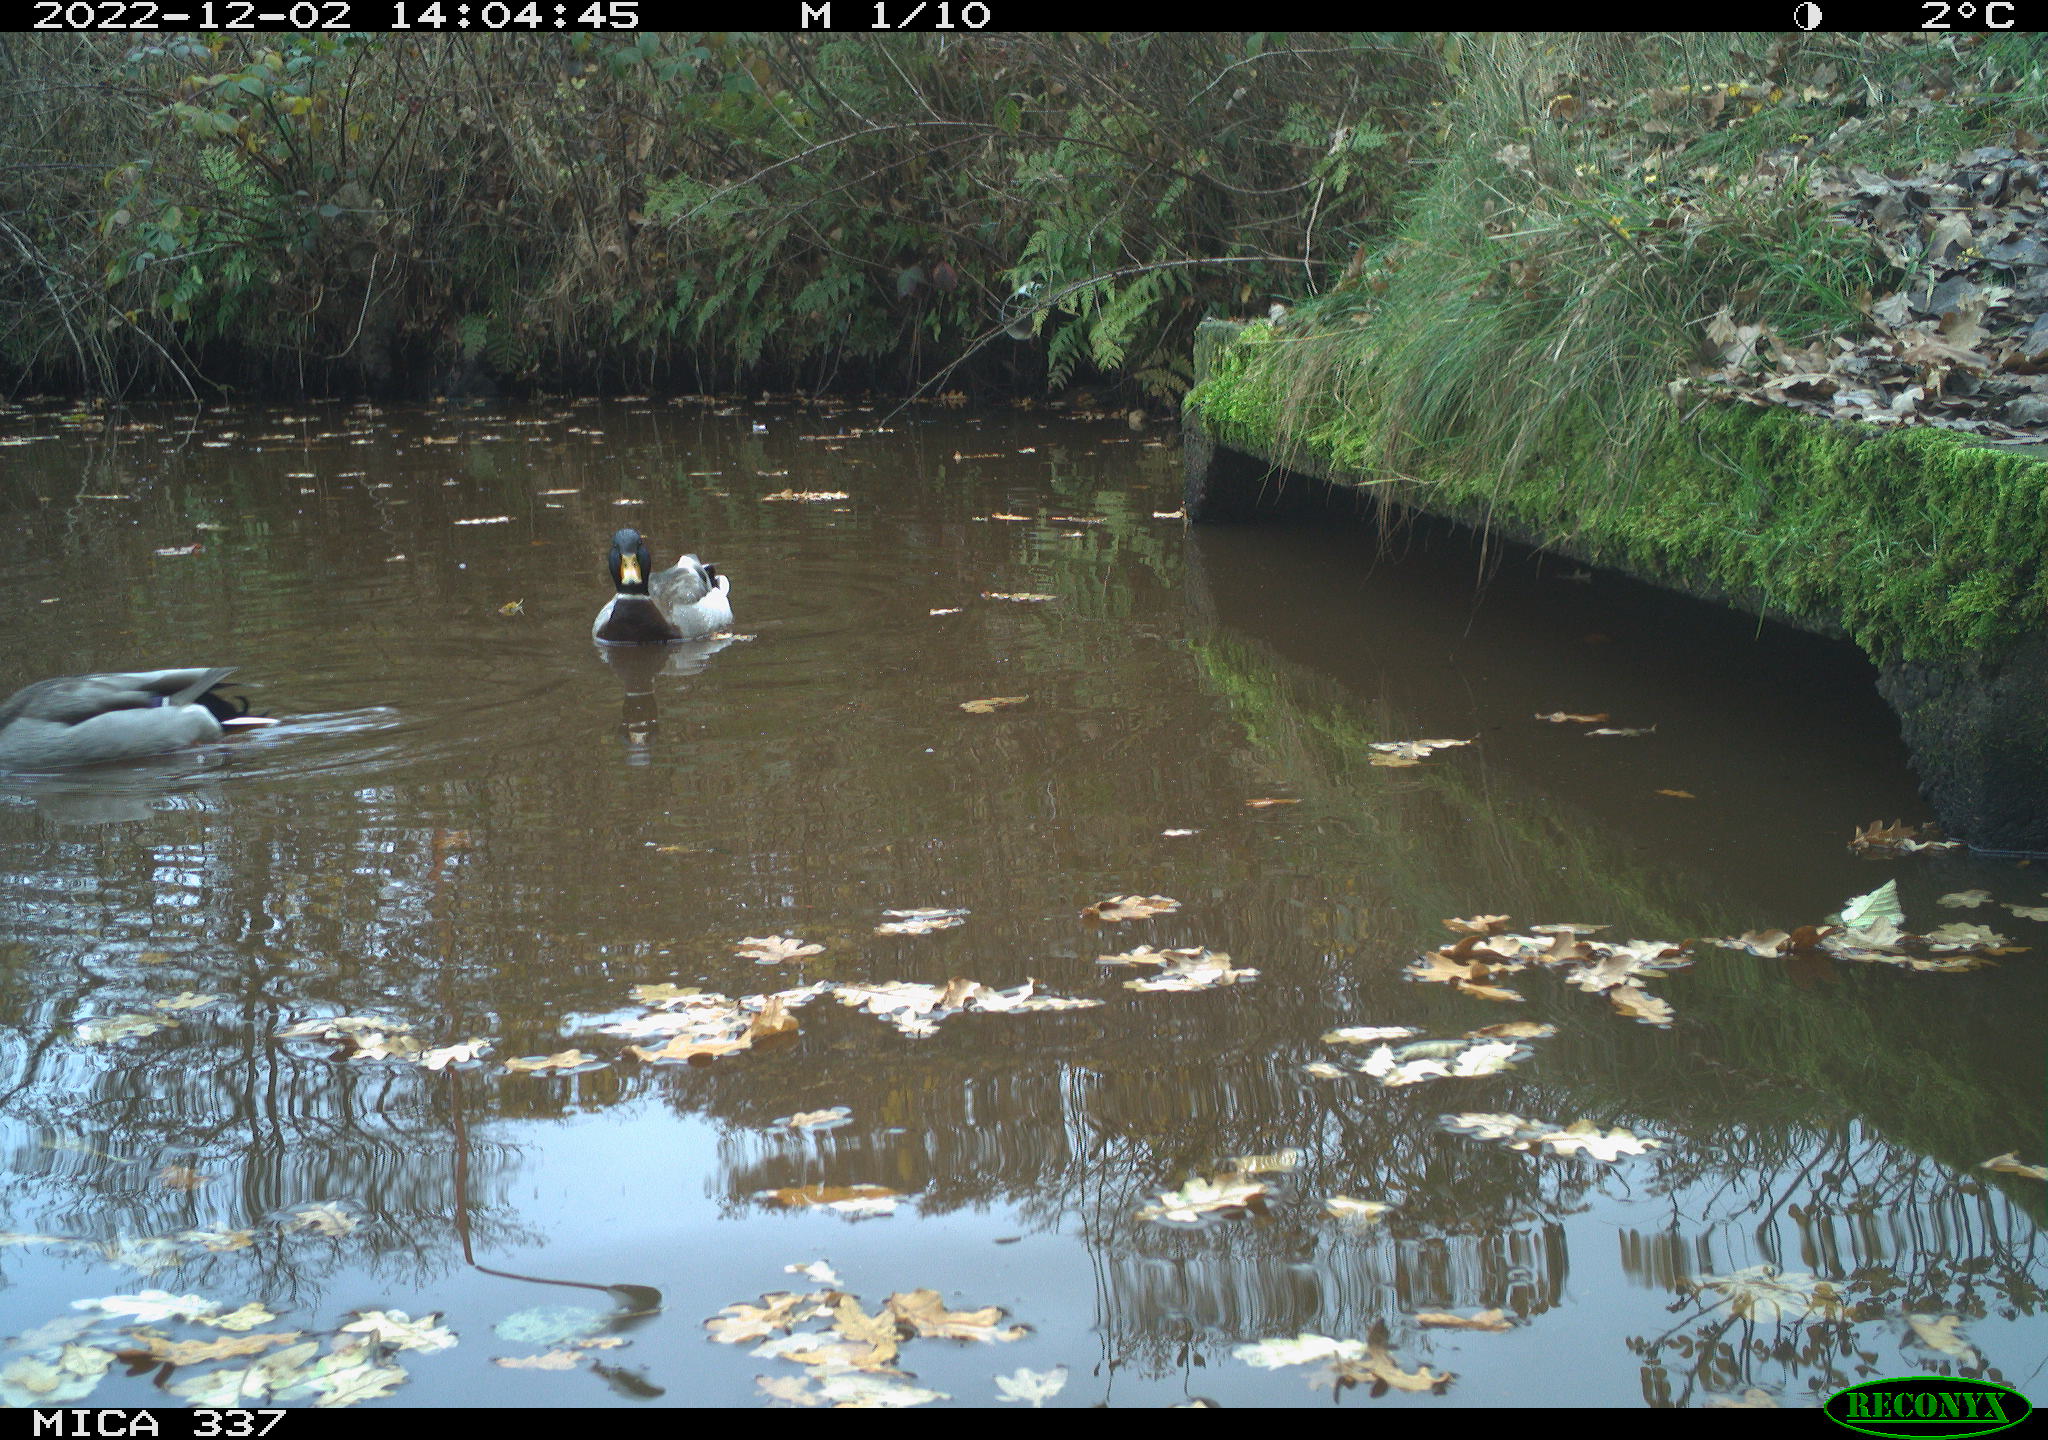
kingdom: Animalia
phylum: Chordata
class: Aves
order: Anseriformes
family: Anatidae
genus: Anas
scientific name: Anas
